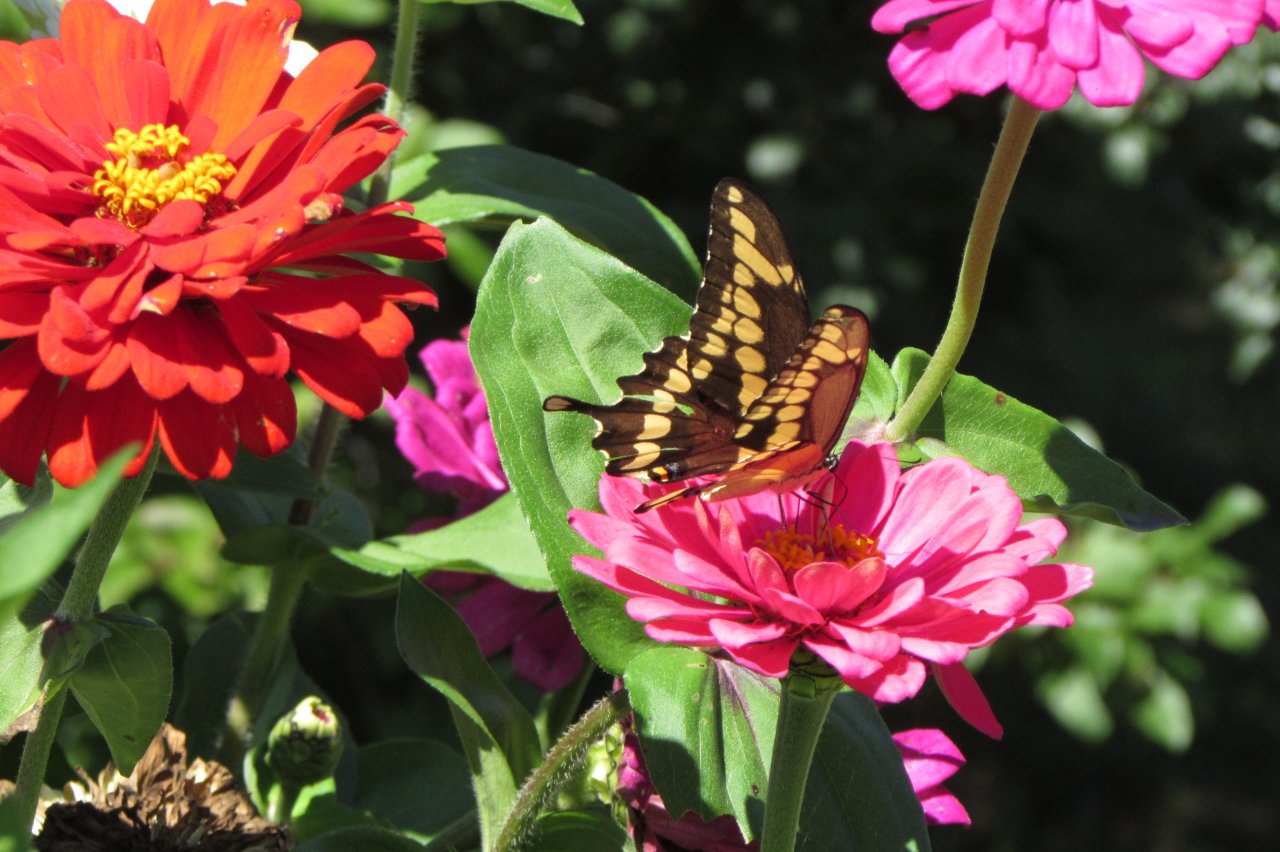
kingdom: Animalia
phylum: Arthropoda
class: Insecta
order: Lepidoptera
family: Papilionidae
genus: Papilio
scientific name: Papilio cresphontes
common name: Eastern Giant Swallowtail
